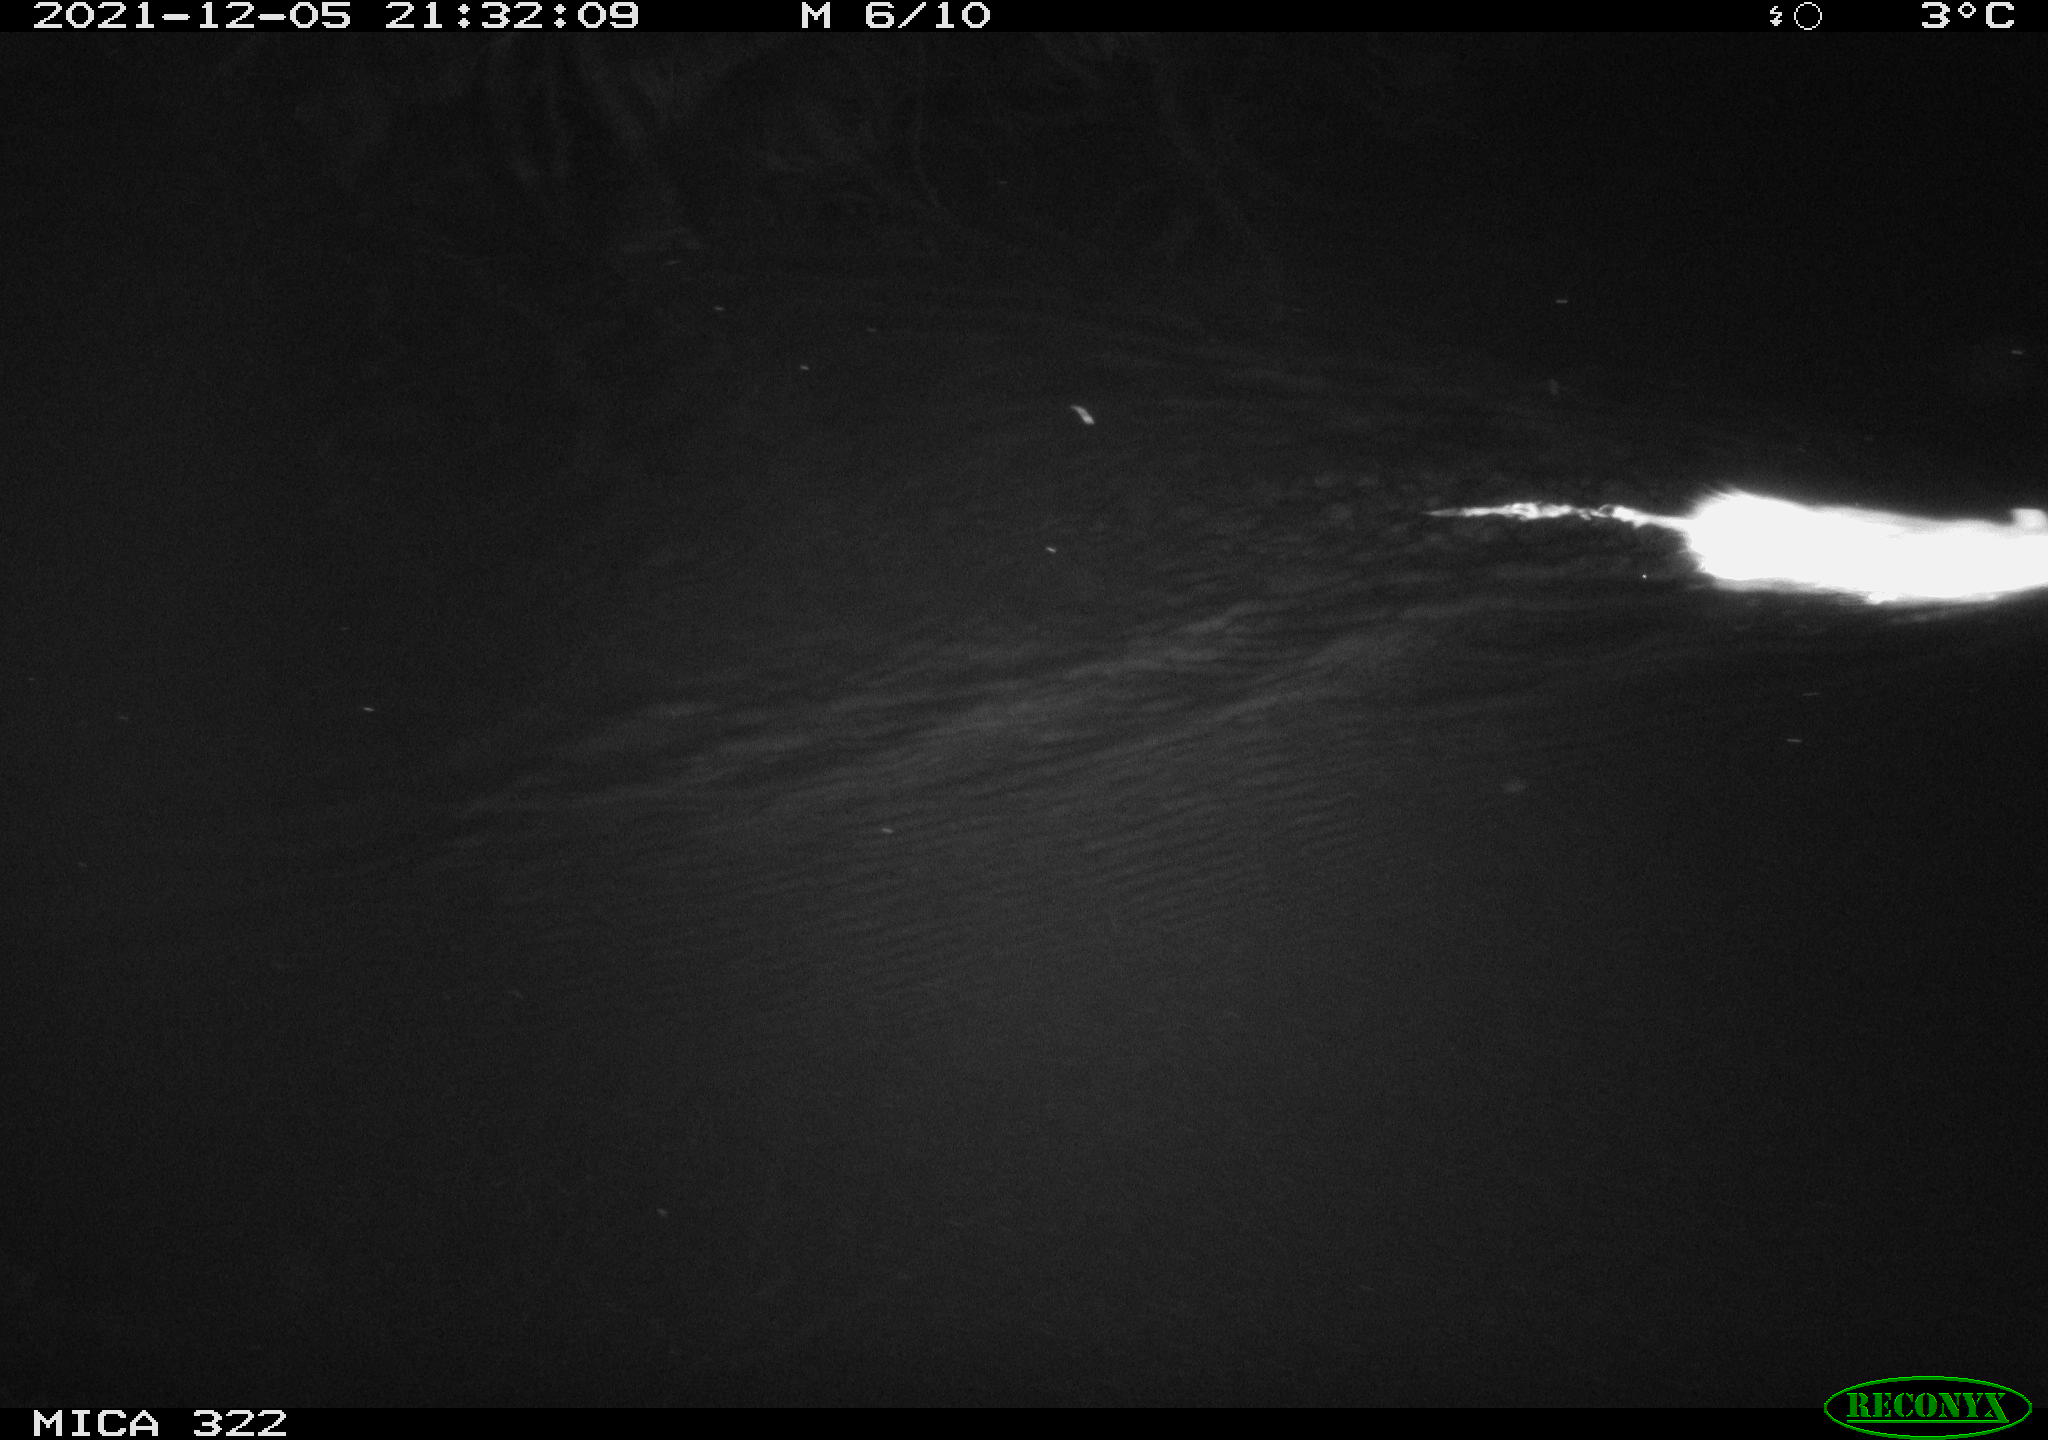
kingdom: Animalia
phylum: Chordata
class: Mammalia
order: Rodentia
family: Muridae
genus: Rattus
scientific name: Rattus norvegicus
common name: Brown rat
